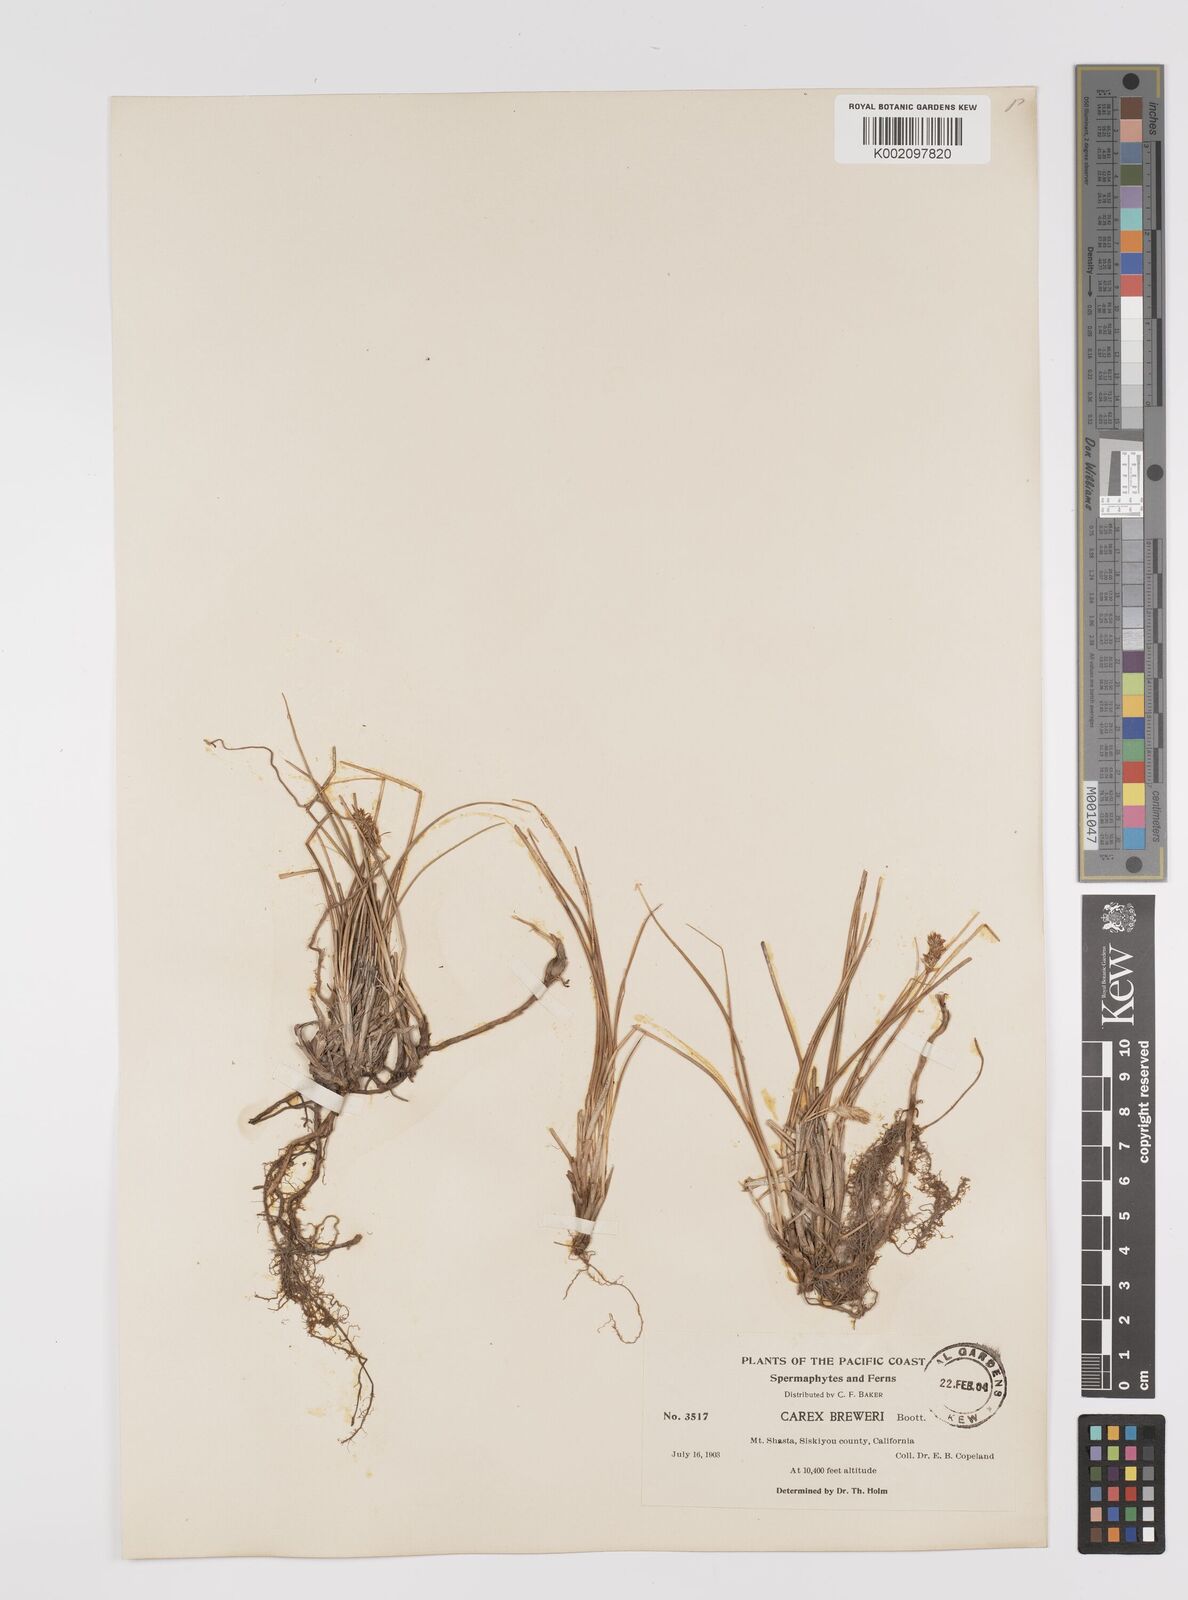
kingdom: Plantae
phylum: Tracheophyta
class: Liliopsida
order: Poales
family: Cyperaceae
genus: Carex
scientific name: Carex breweri
